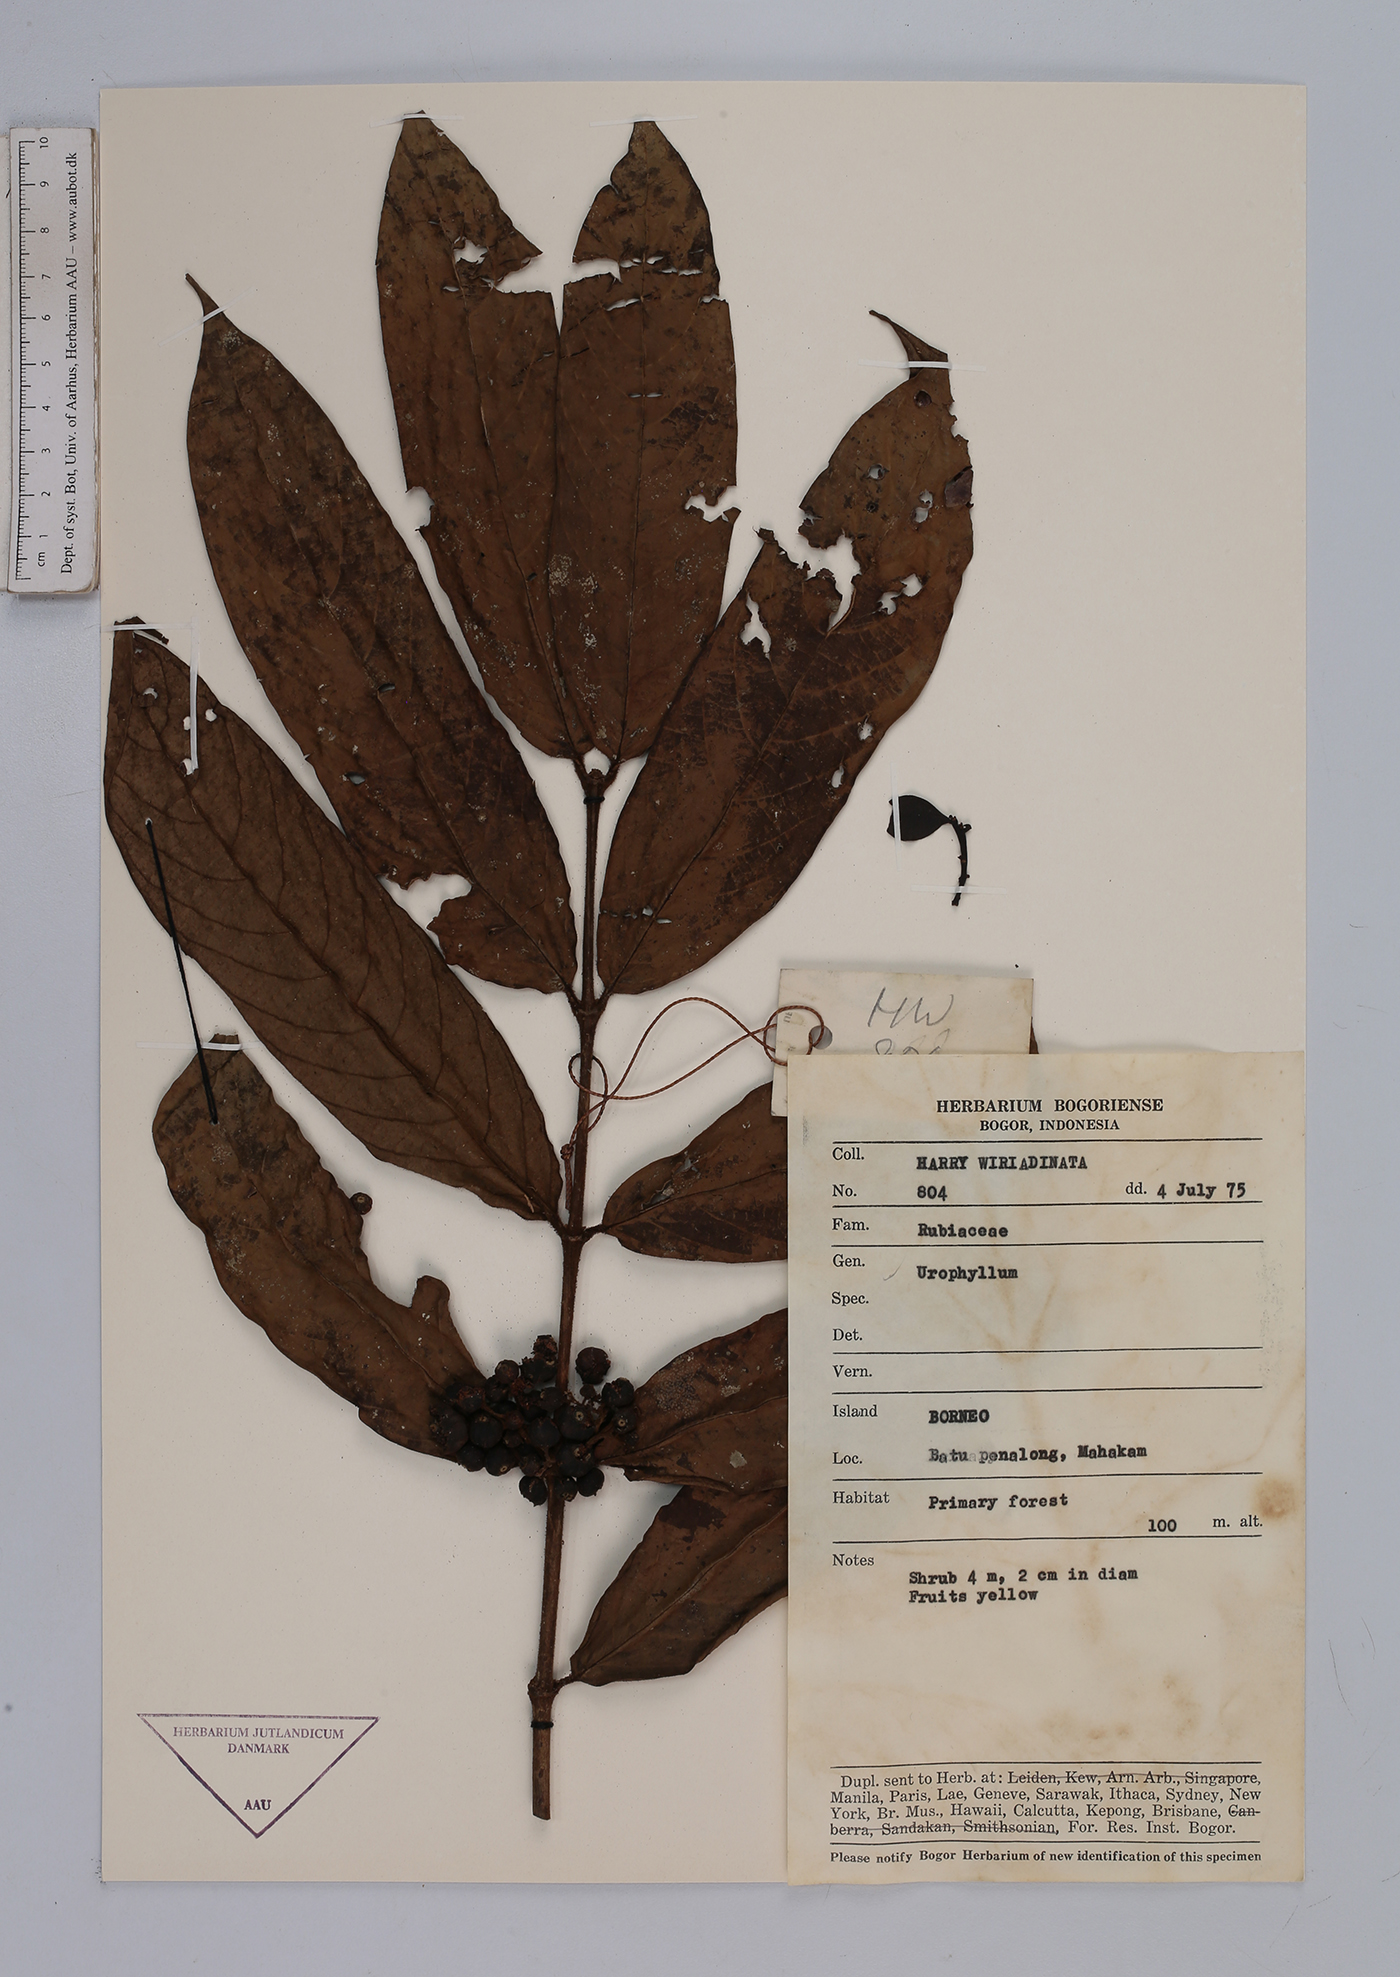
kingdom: Plantae
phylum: Tracheophyta
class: Magnoliopsida
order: Gentianales
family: Rubiaceae
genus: Urophyllum
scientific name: Urophyllum
